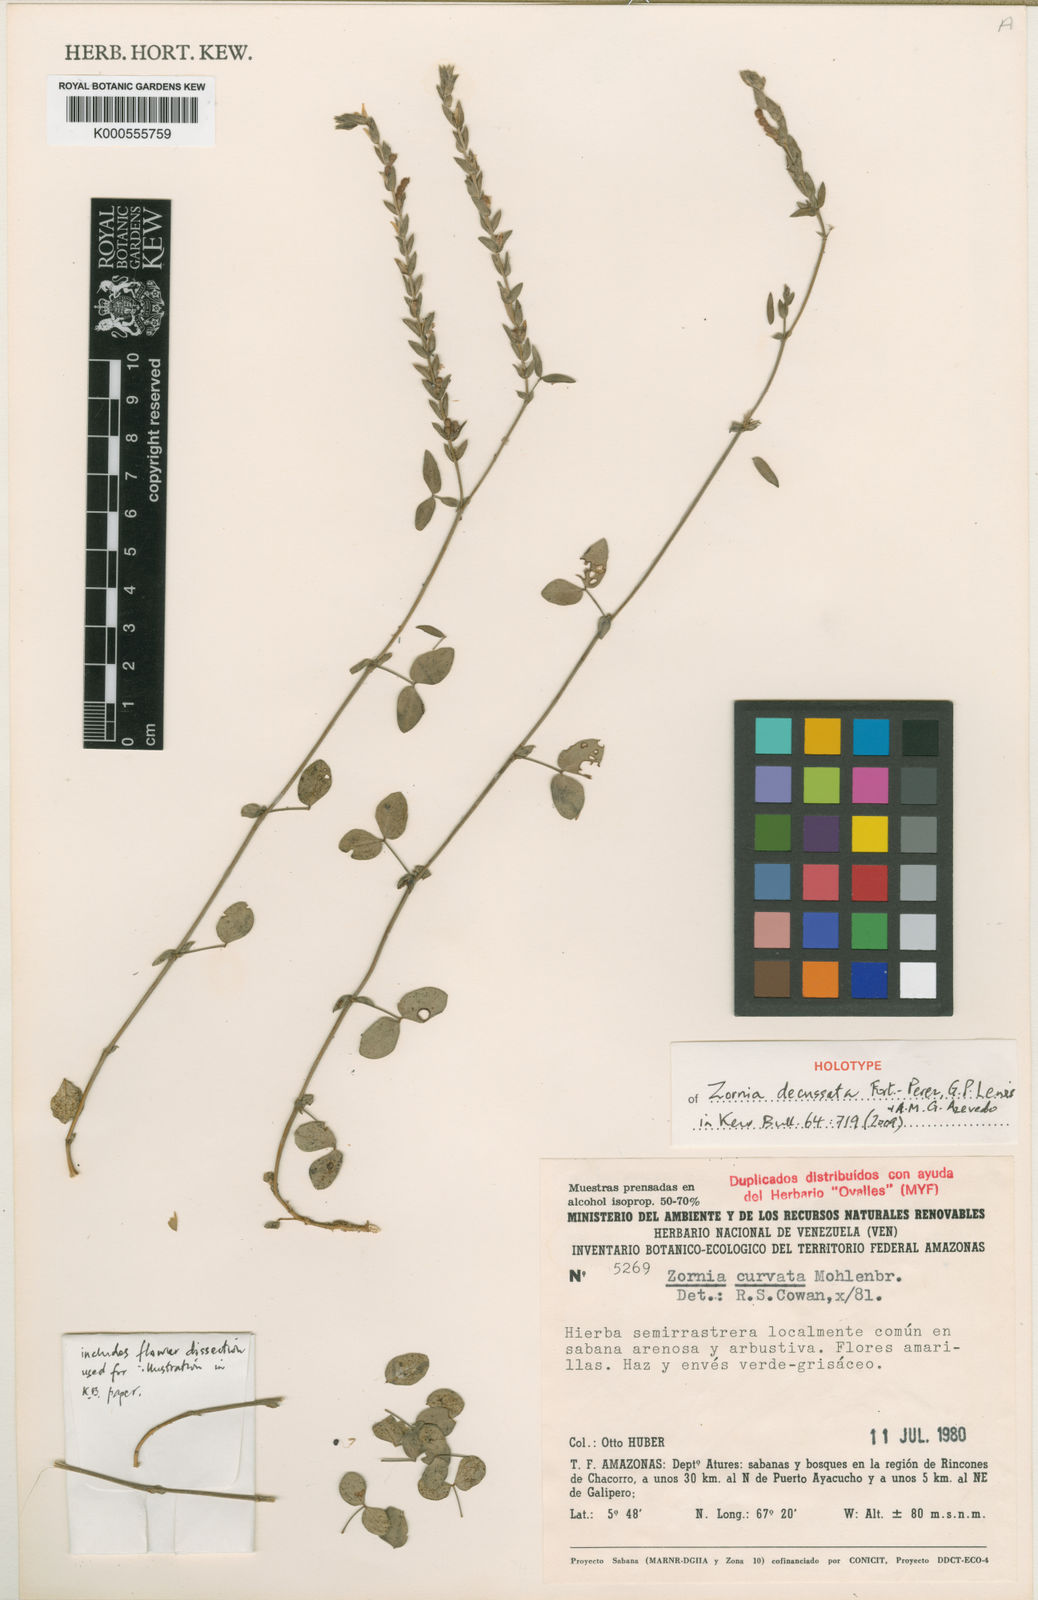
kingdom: Plantae
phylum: Tracheophyta
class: Magnoliopsida
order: Fabales
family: Fabaceae
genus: Zornia
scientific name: Zornia
